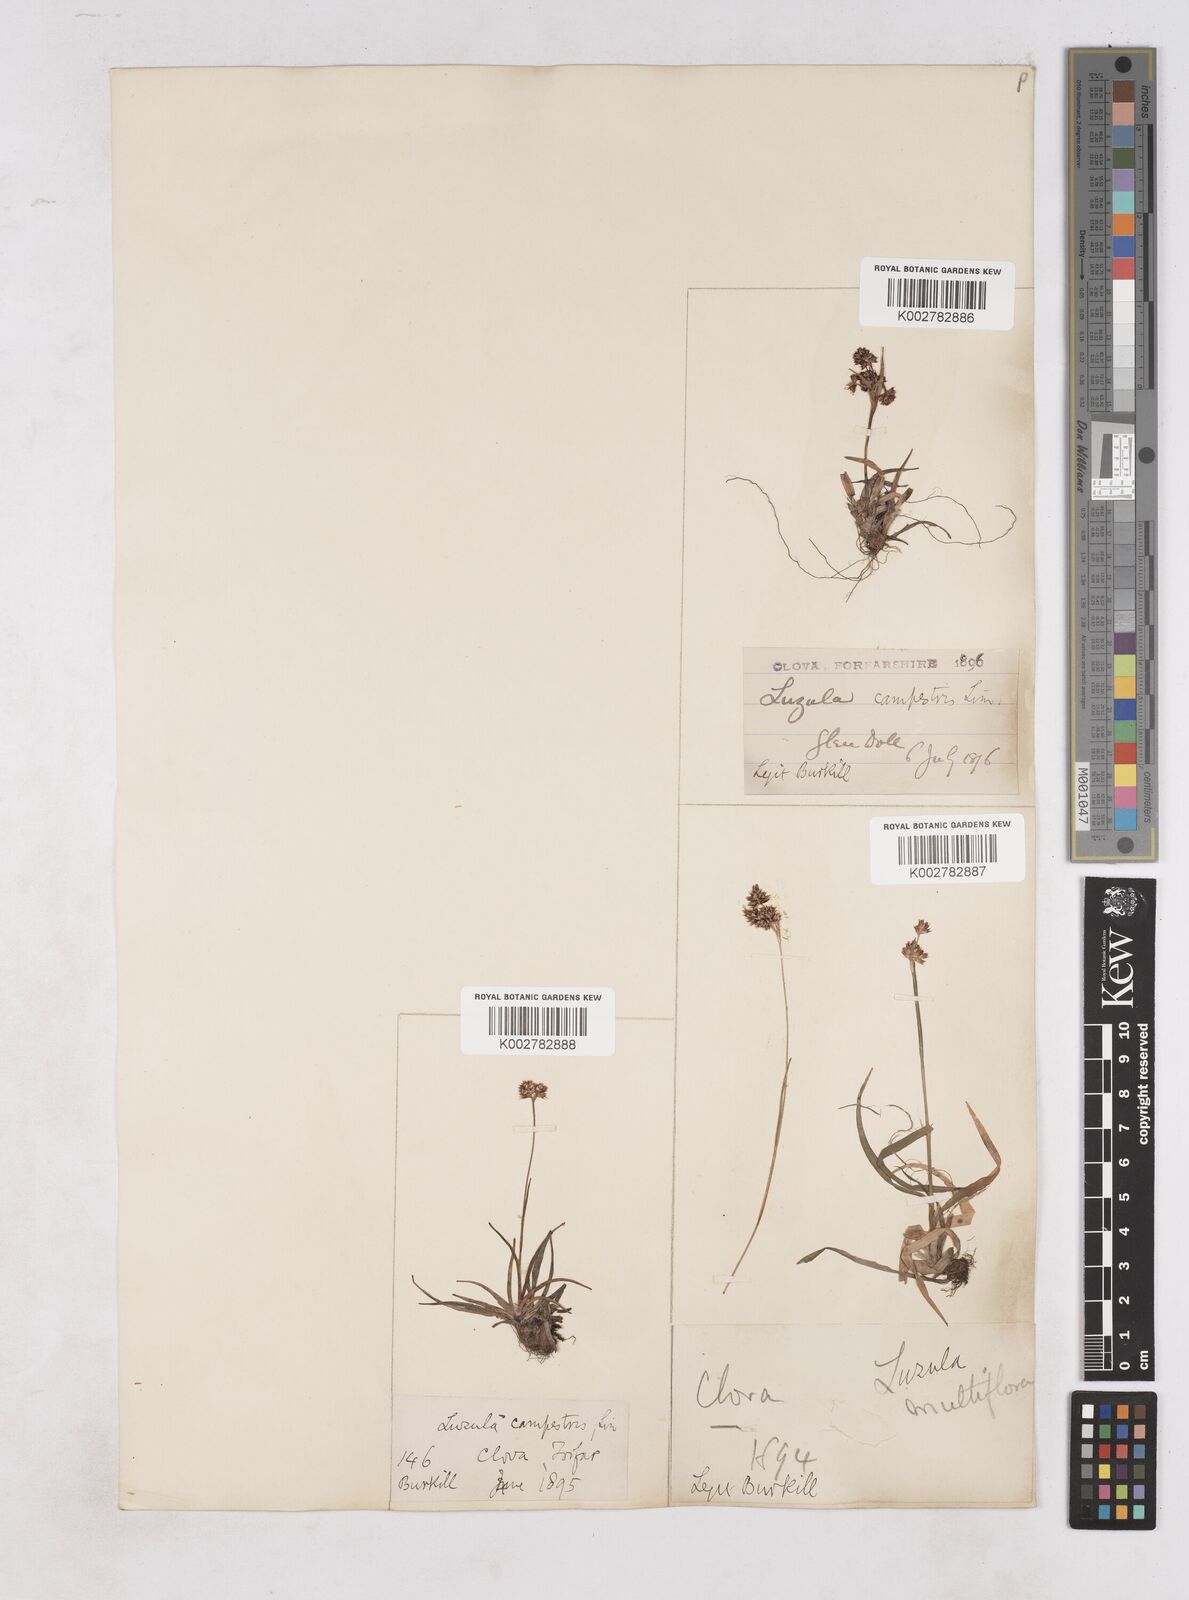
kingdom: Plantae
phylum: Tracheophyta
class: Liliopsida
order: Poales
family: Juncaceae
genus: Luzula
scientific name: Luzula campestris
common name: Field wood-rush
